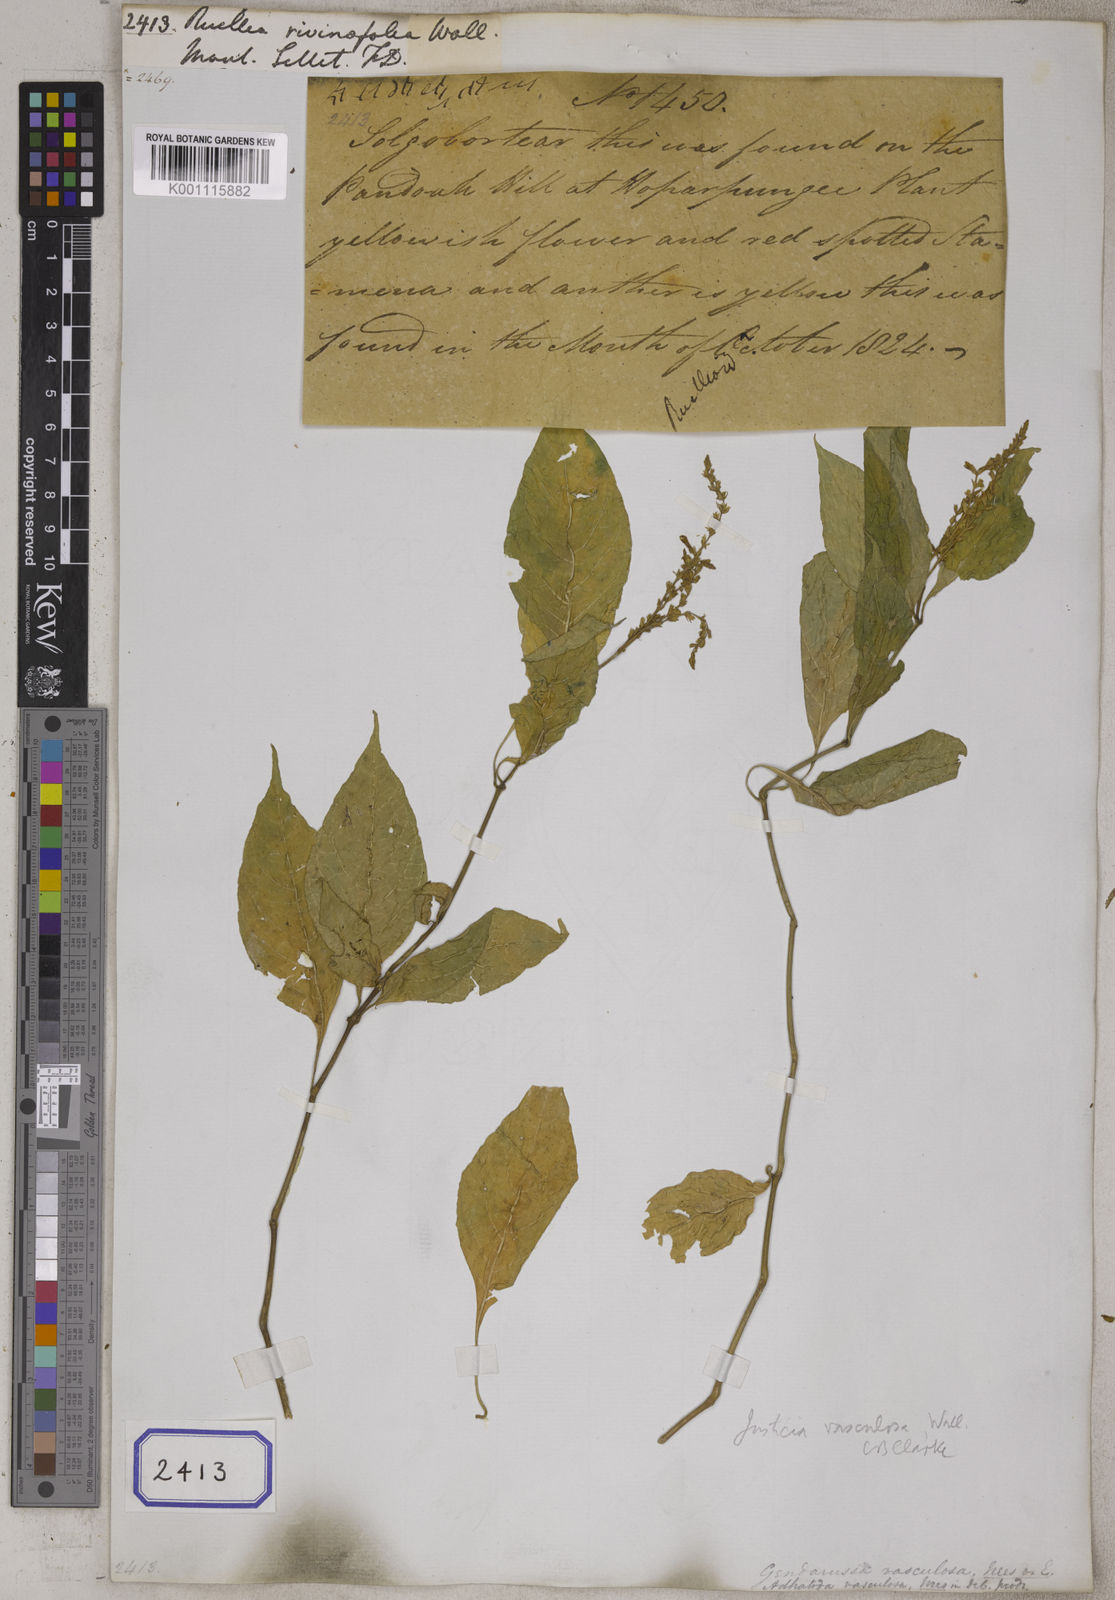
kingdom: Plantae
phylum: Tracheophyta
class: Magnoliopsida
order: Lamiales
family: Acanthaceae
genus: Ruellia
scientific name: Ruellia
